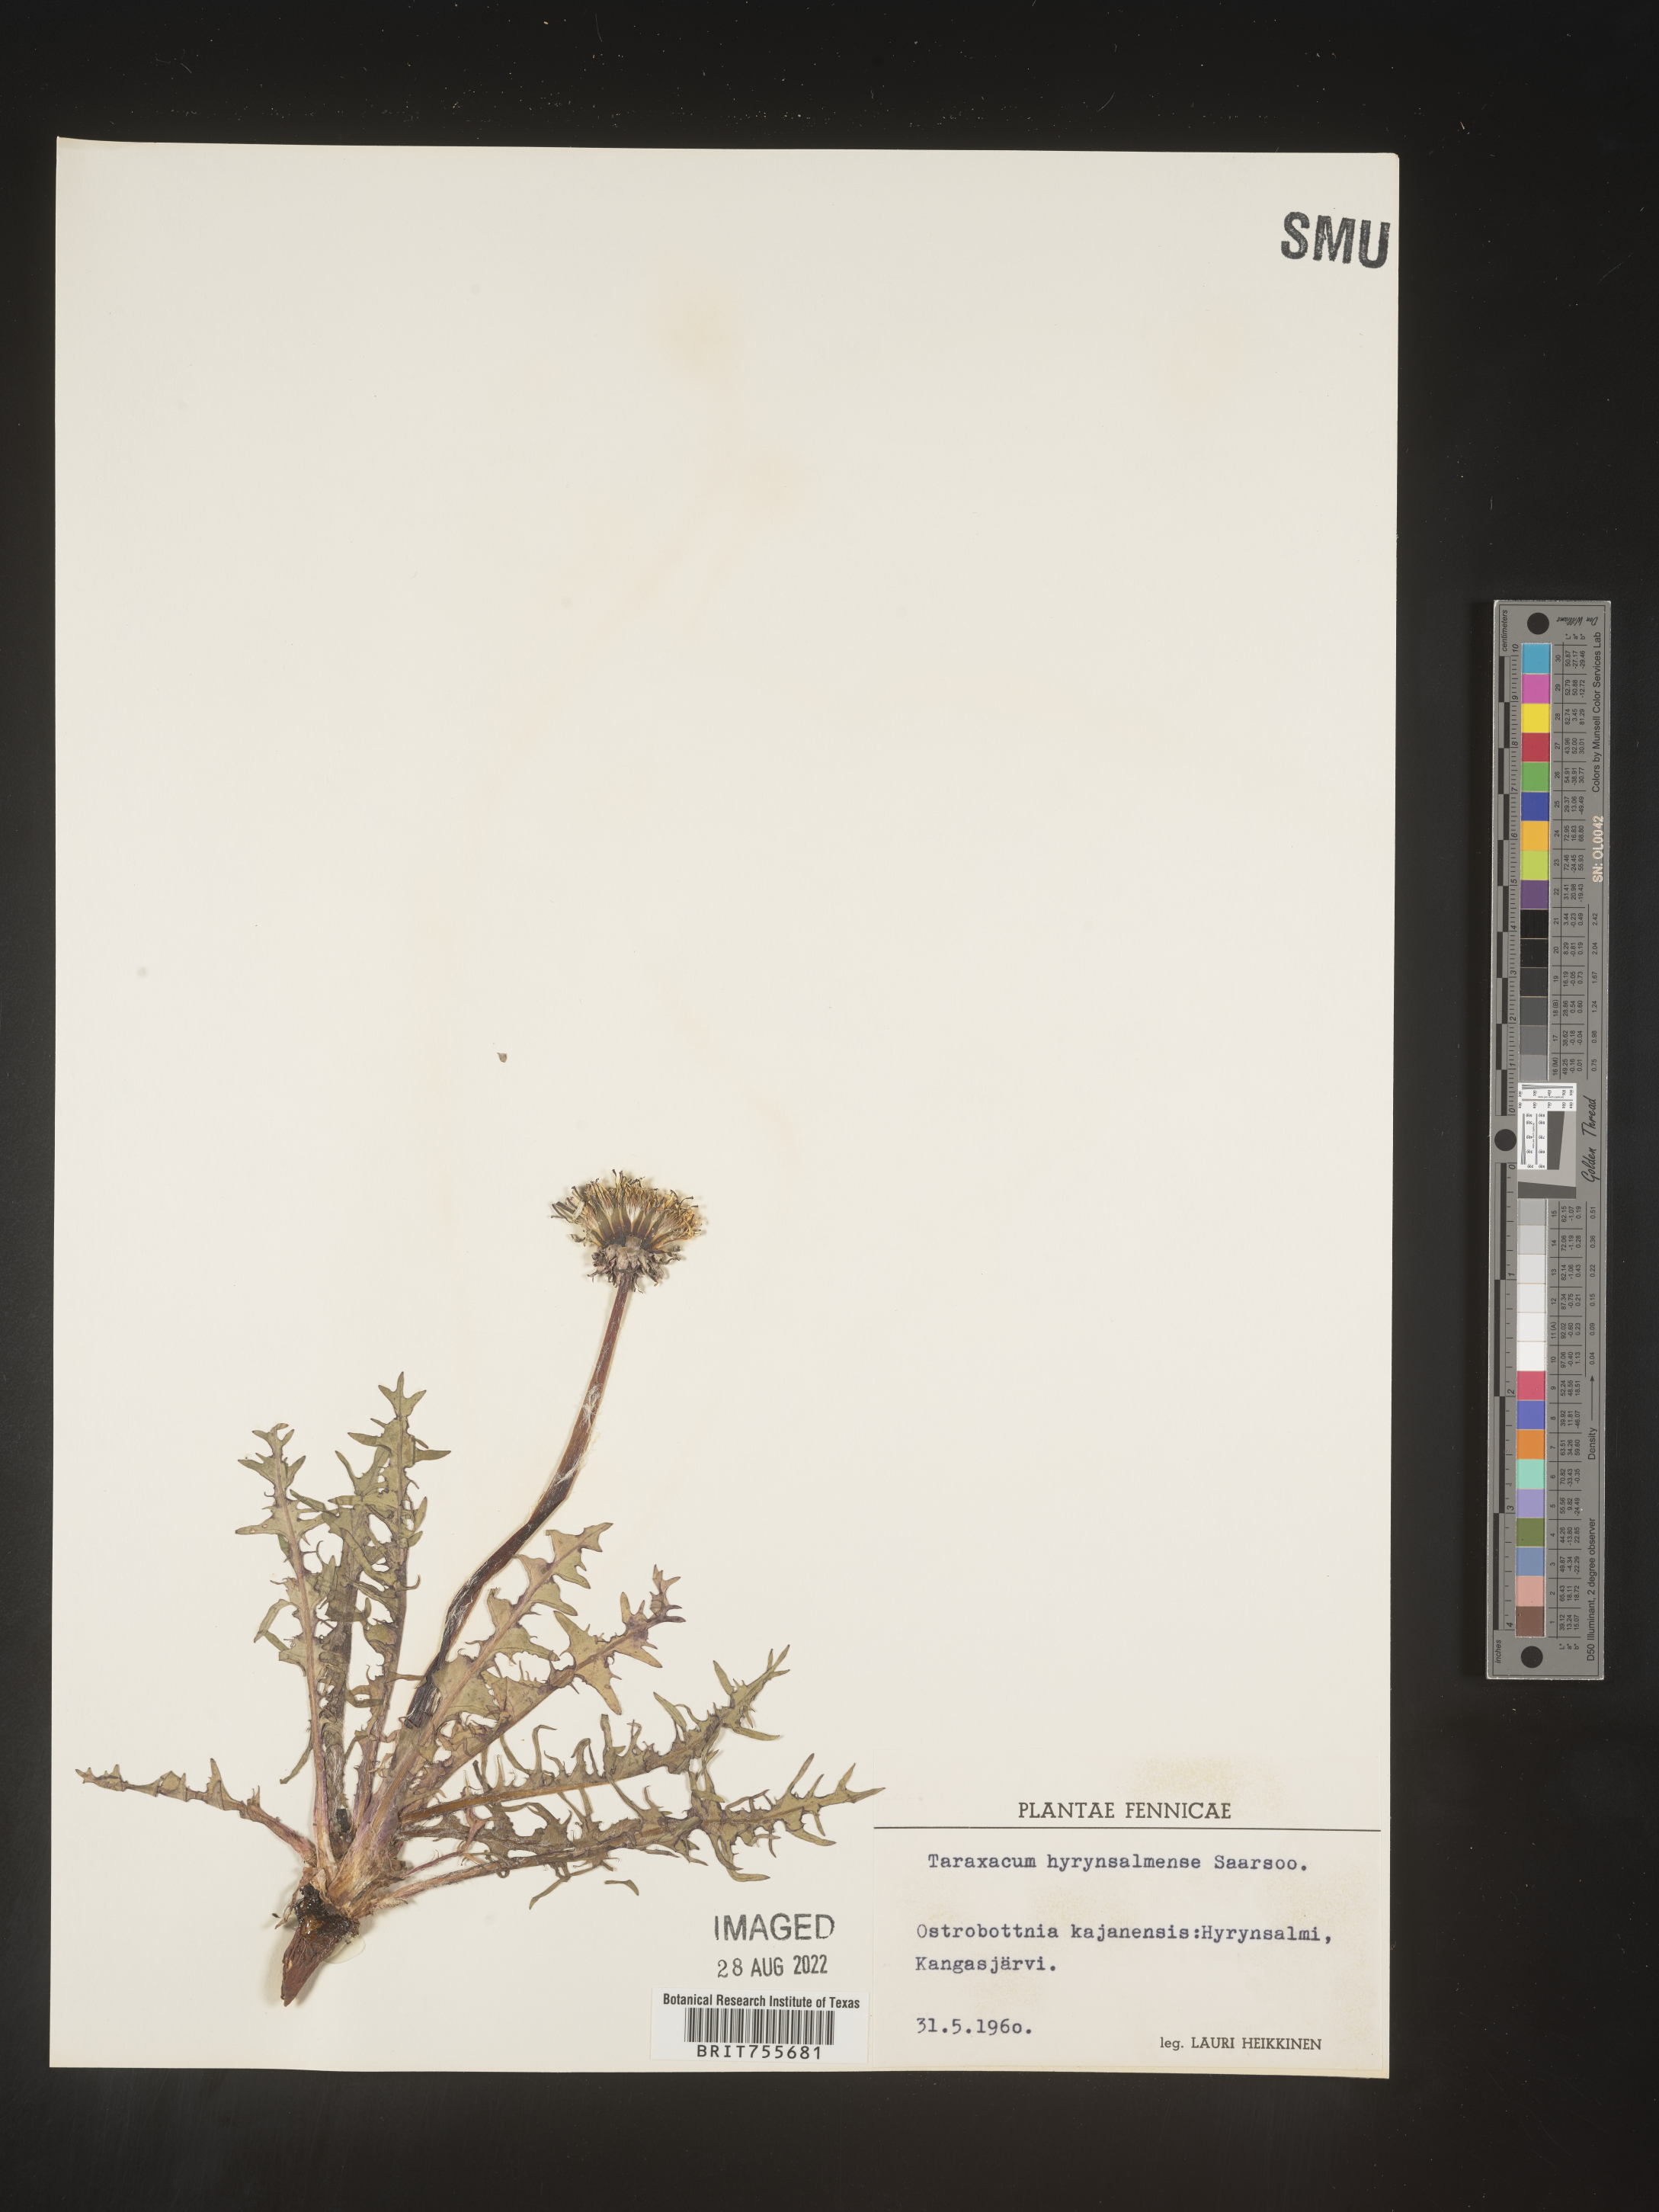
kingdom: Plantae
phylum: Tracheophyta
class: Magnoliopsida
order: Asterales
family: Asteraceae
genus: Taraxacum
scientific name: Taraxacum
